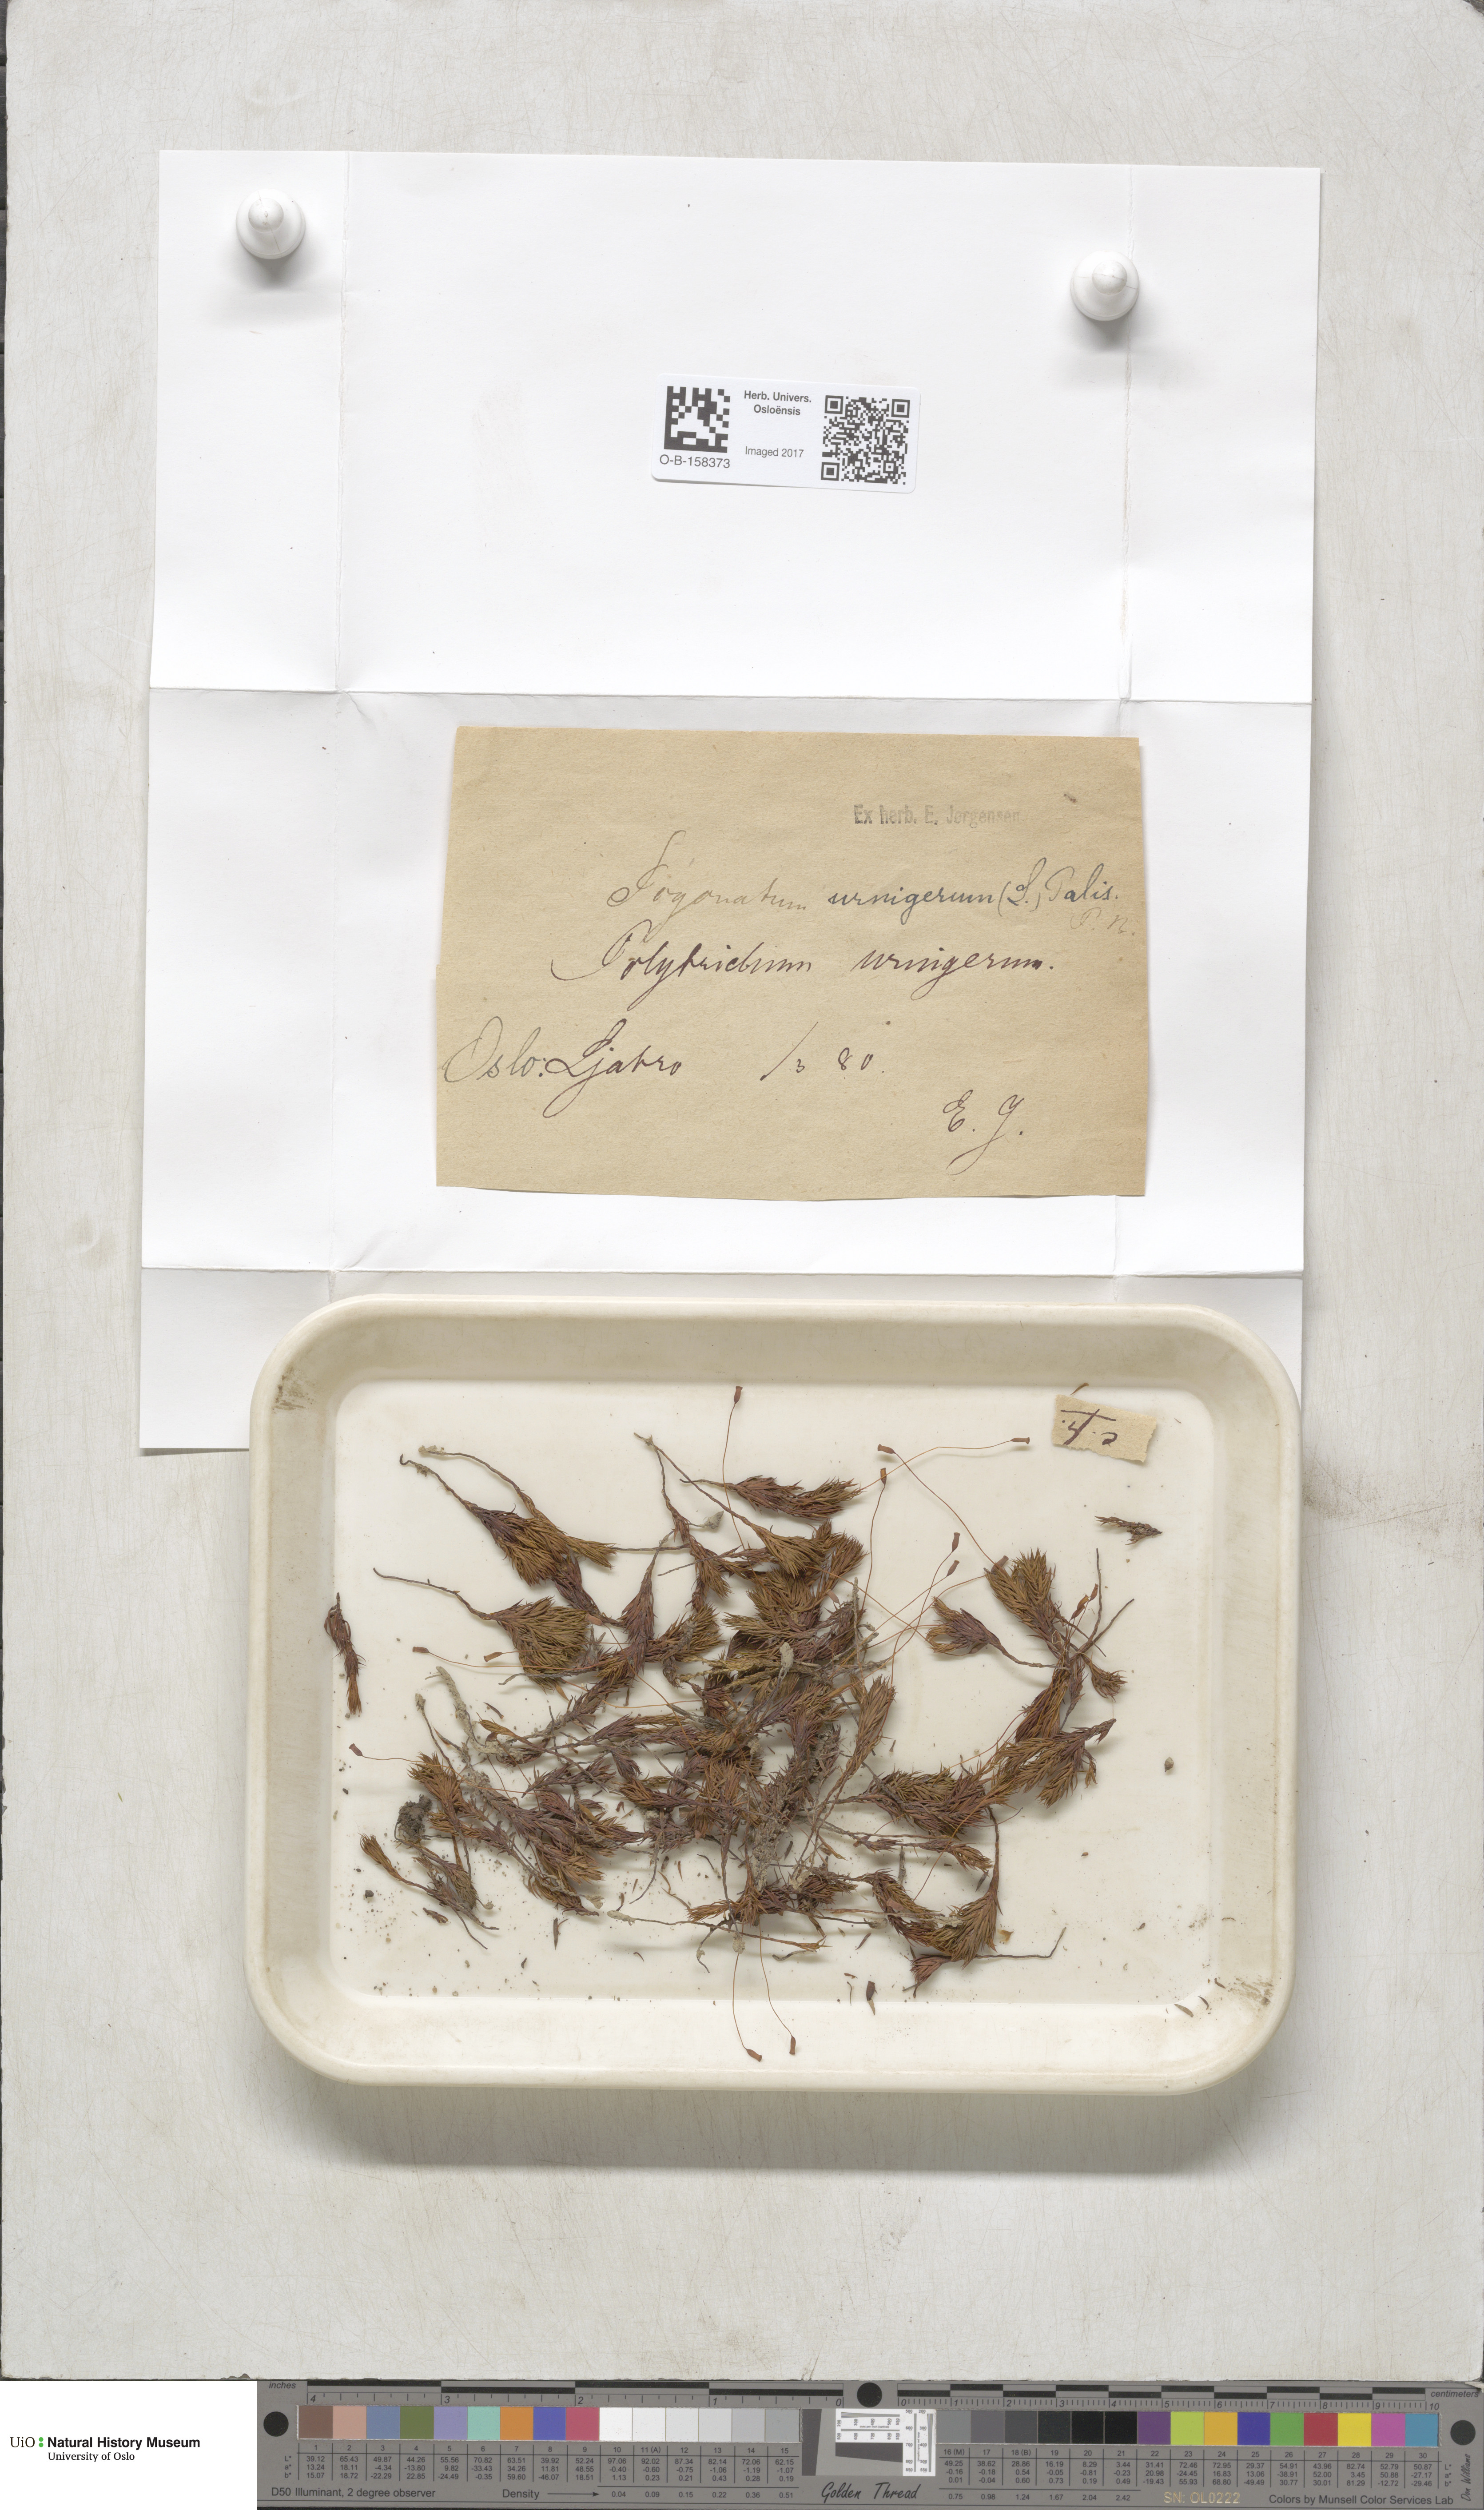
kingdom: Plantae
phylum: Bryophyta
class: Polytrichopsida
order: Polytrichales
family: Polytrichaceae
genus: Pogonatum
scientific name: Pogonatum urnigerum
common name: Urn hair moss
